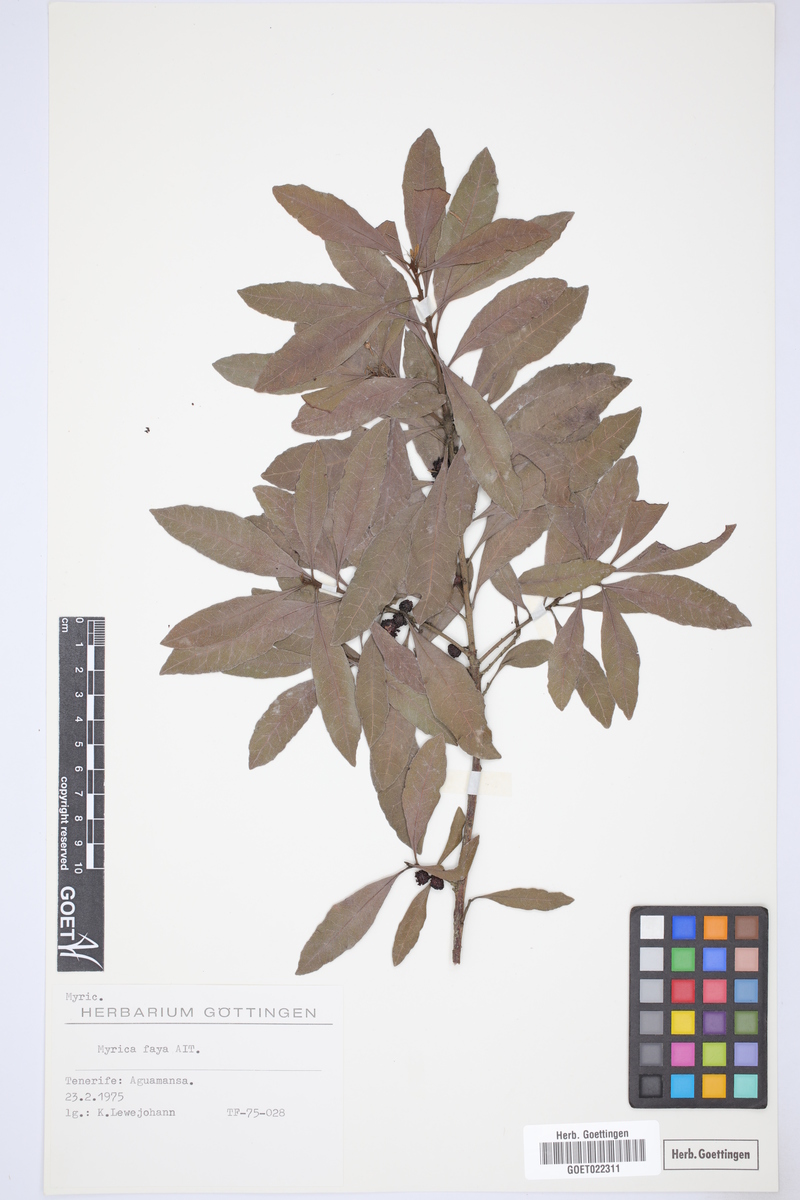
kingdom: Plantae
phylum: Tracheophyta
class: Magnoliopsida
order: Fagales
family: Myricaceae
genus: Morella
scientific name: Morella faya
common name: Firetree
